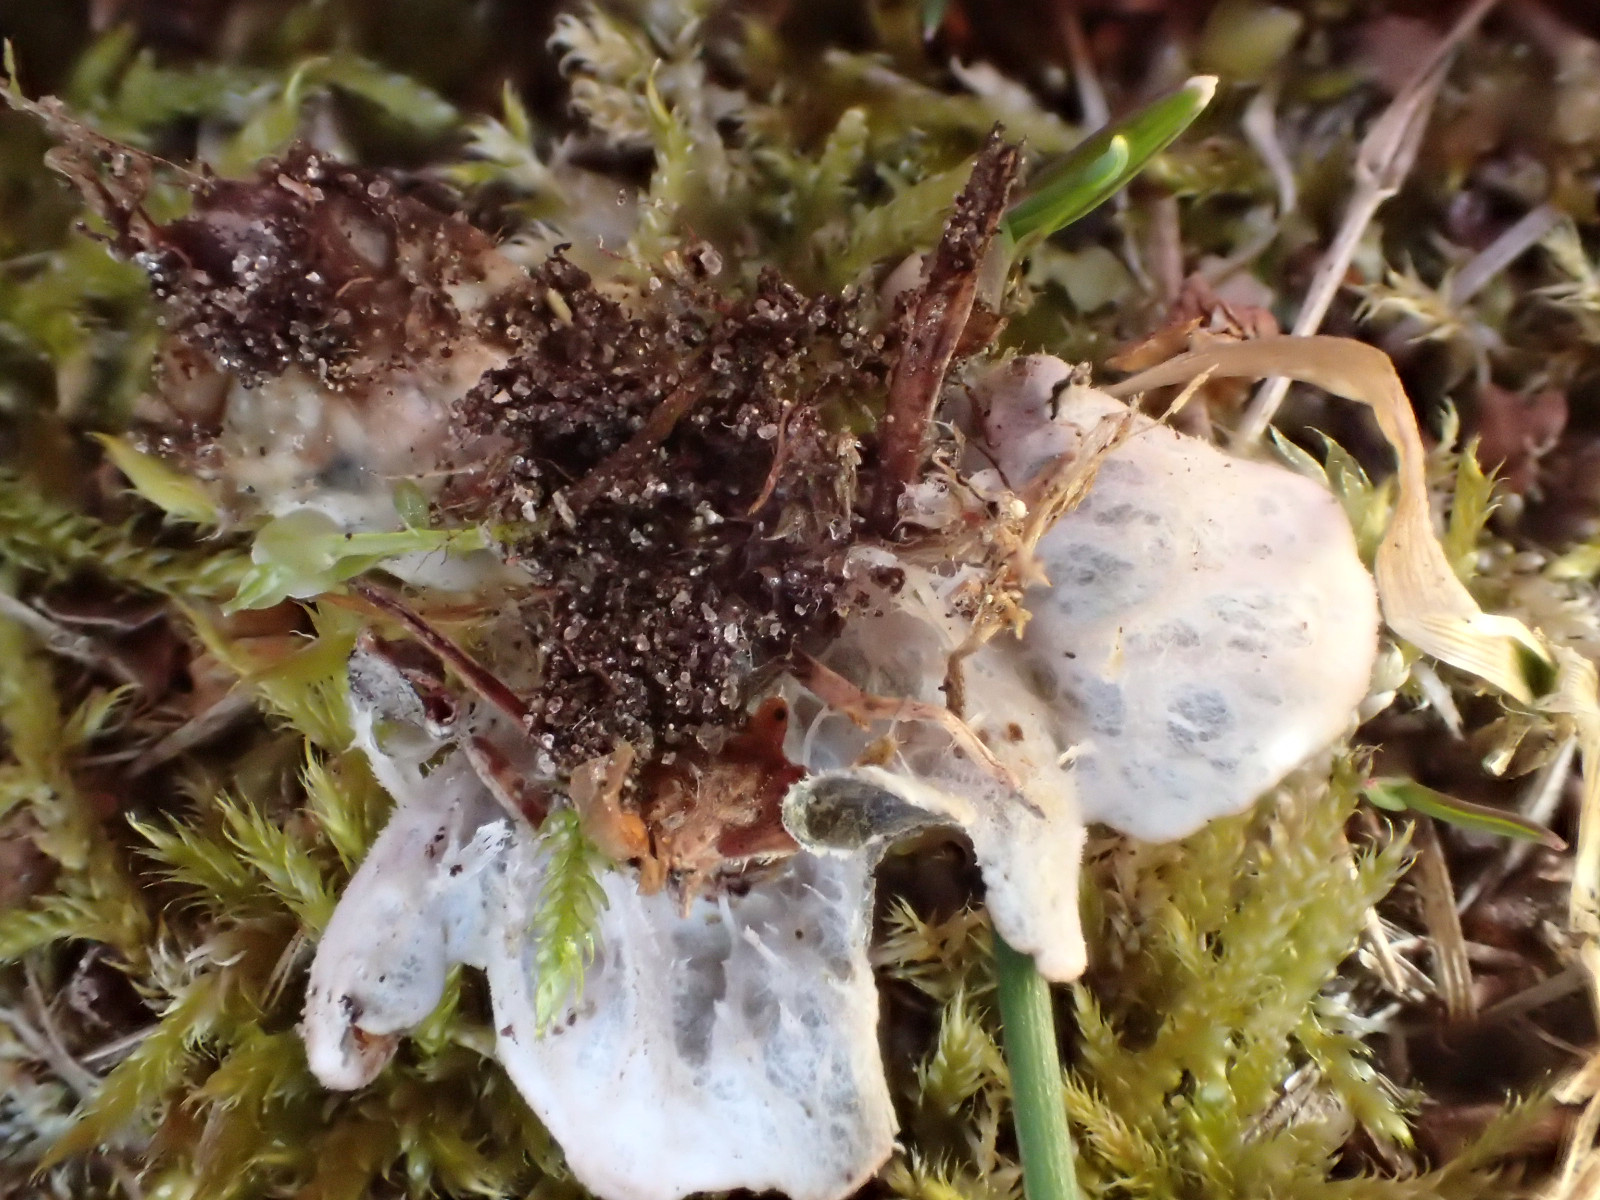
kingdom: Fungi
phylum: Ascomycota
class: Lecanoromycetes
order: Peltigerales
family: Peltigeraceae
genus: Peltigera
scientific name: Peltigera didactyla
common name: liden skjoldlav
